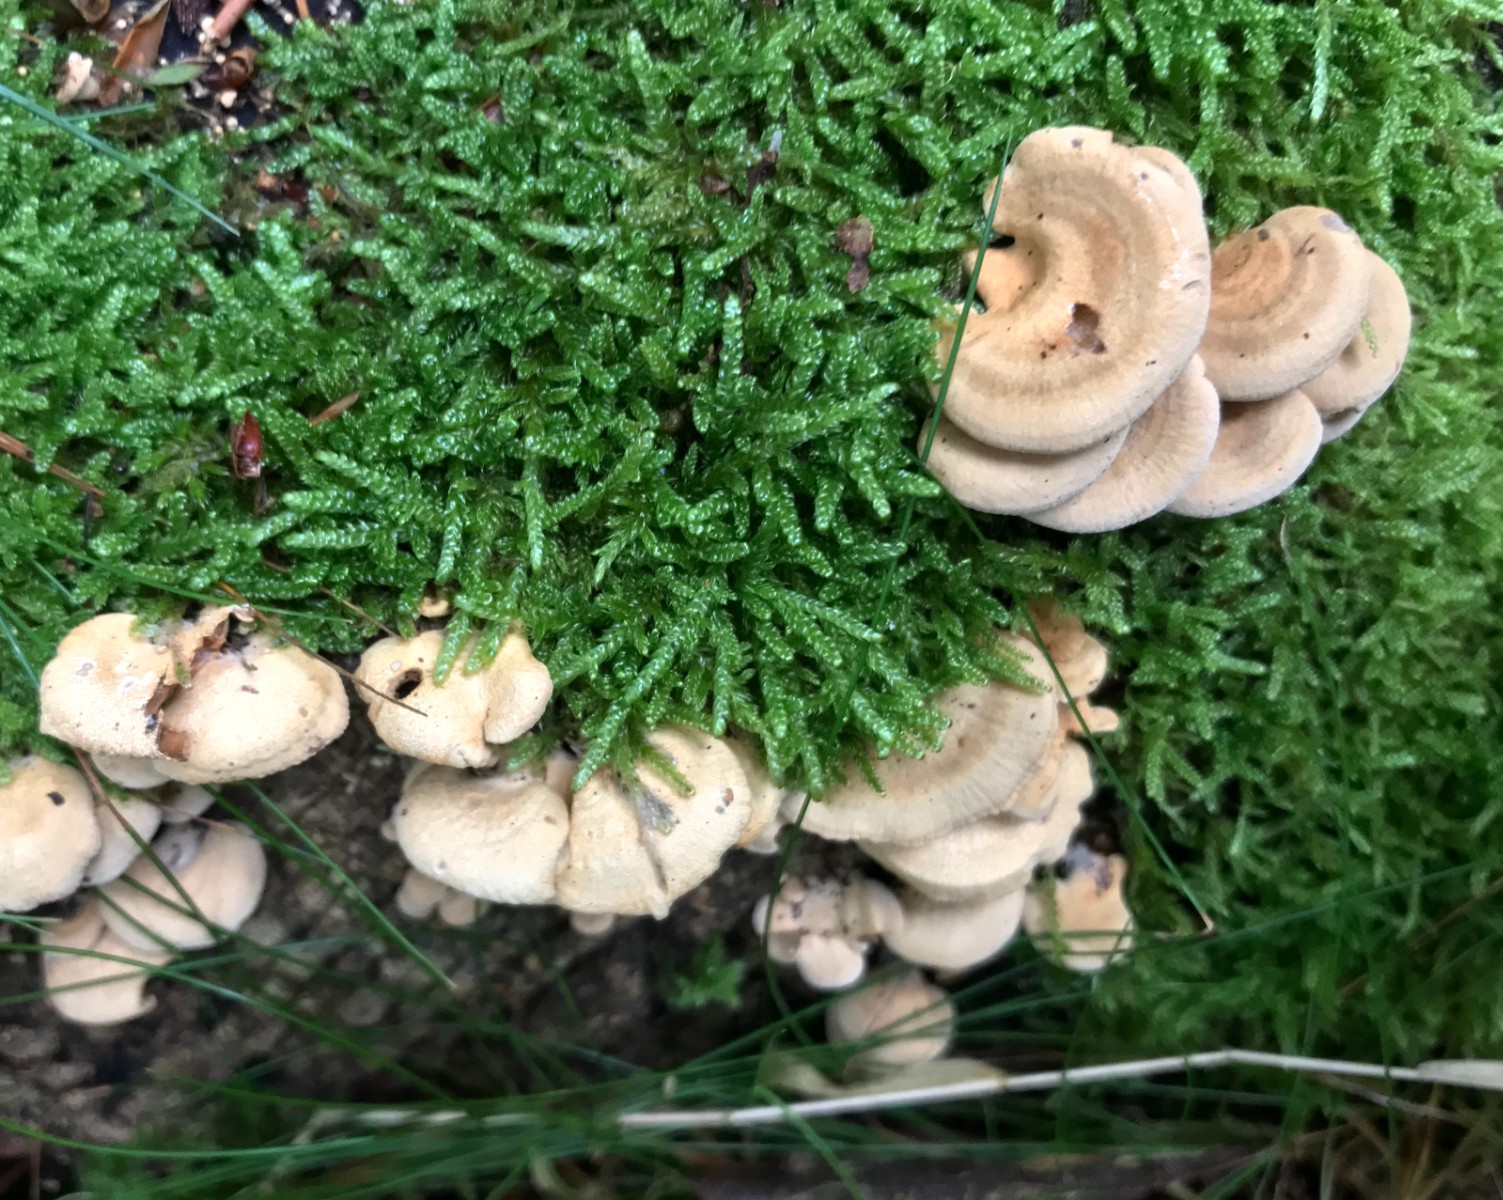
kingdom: Fungi
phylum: Basidiomycota
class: Agaricomycetes
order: Agaricales
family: Mycenaceae
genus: Panellus
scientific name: Panellus stipticus
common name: kliddet epaulethat
